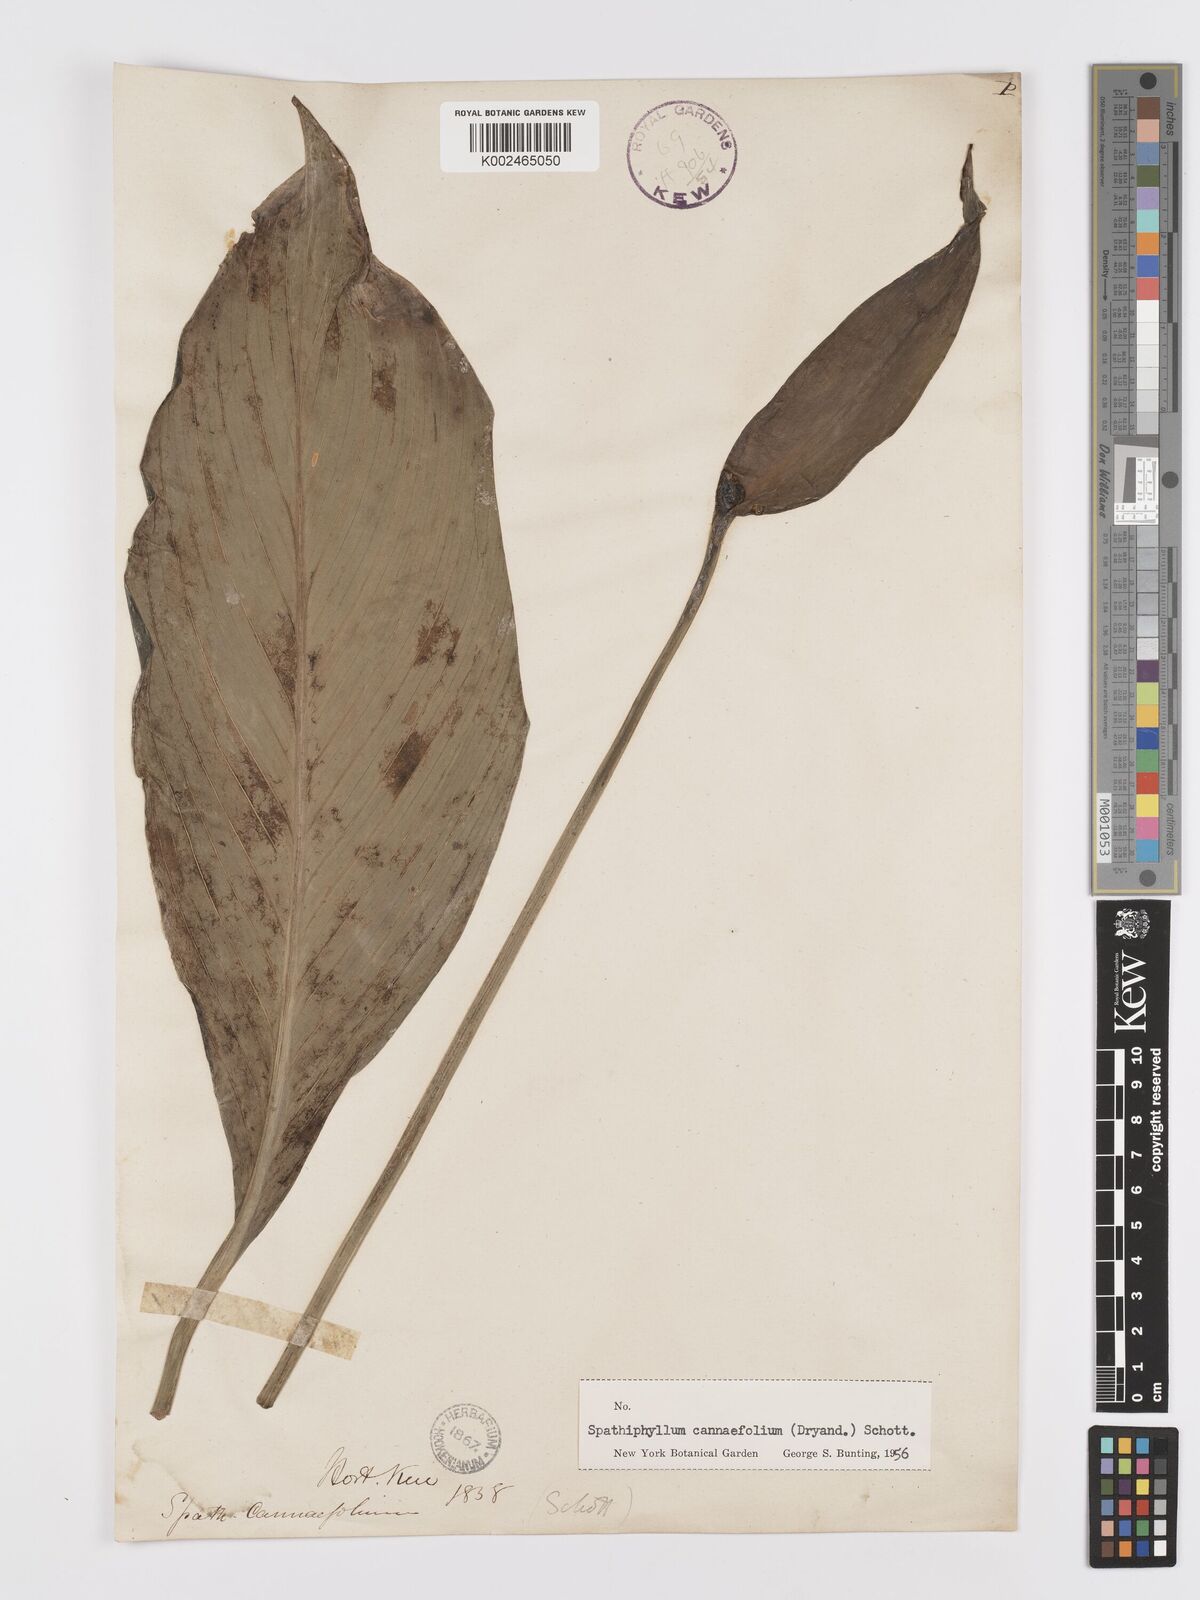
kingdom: Plantae
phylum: Tracheophyta
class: Liliopsida
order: Alismatales
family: Araceae
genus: Spathiphyllum
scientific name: Spathiphyllum cannifolium
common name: Spatheflower
